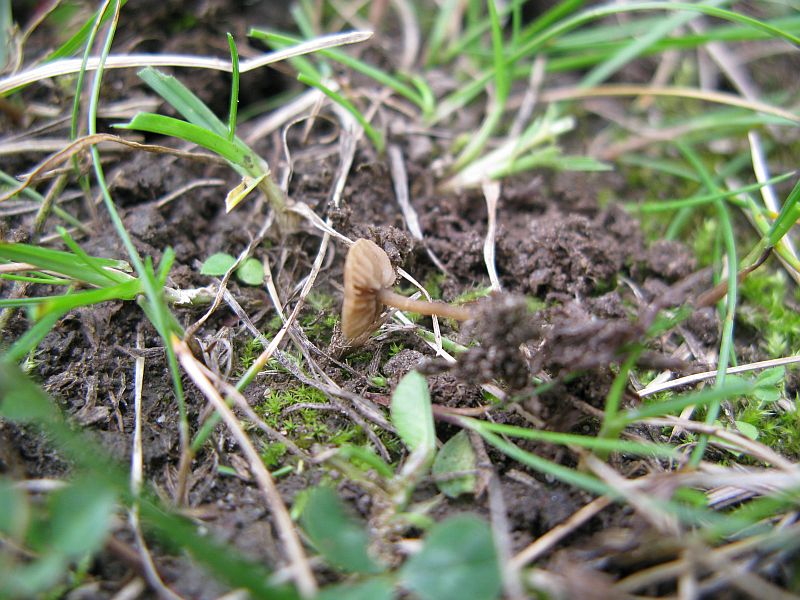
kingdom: Fungi
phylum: Basidiomycota
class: Agaricomycetes
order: Agaricales
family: Crepidotaceae
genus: Simocybe
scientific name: Simocybe
